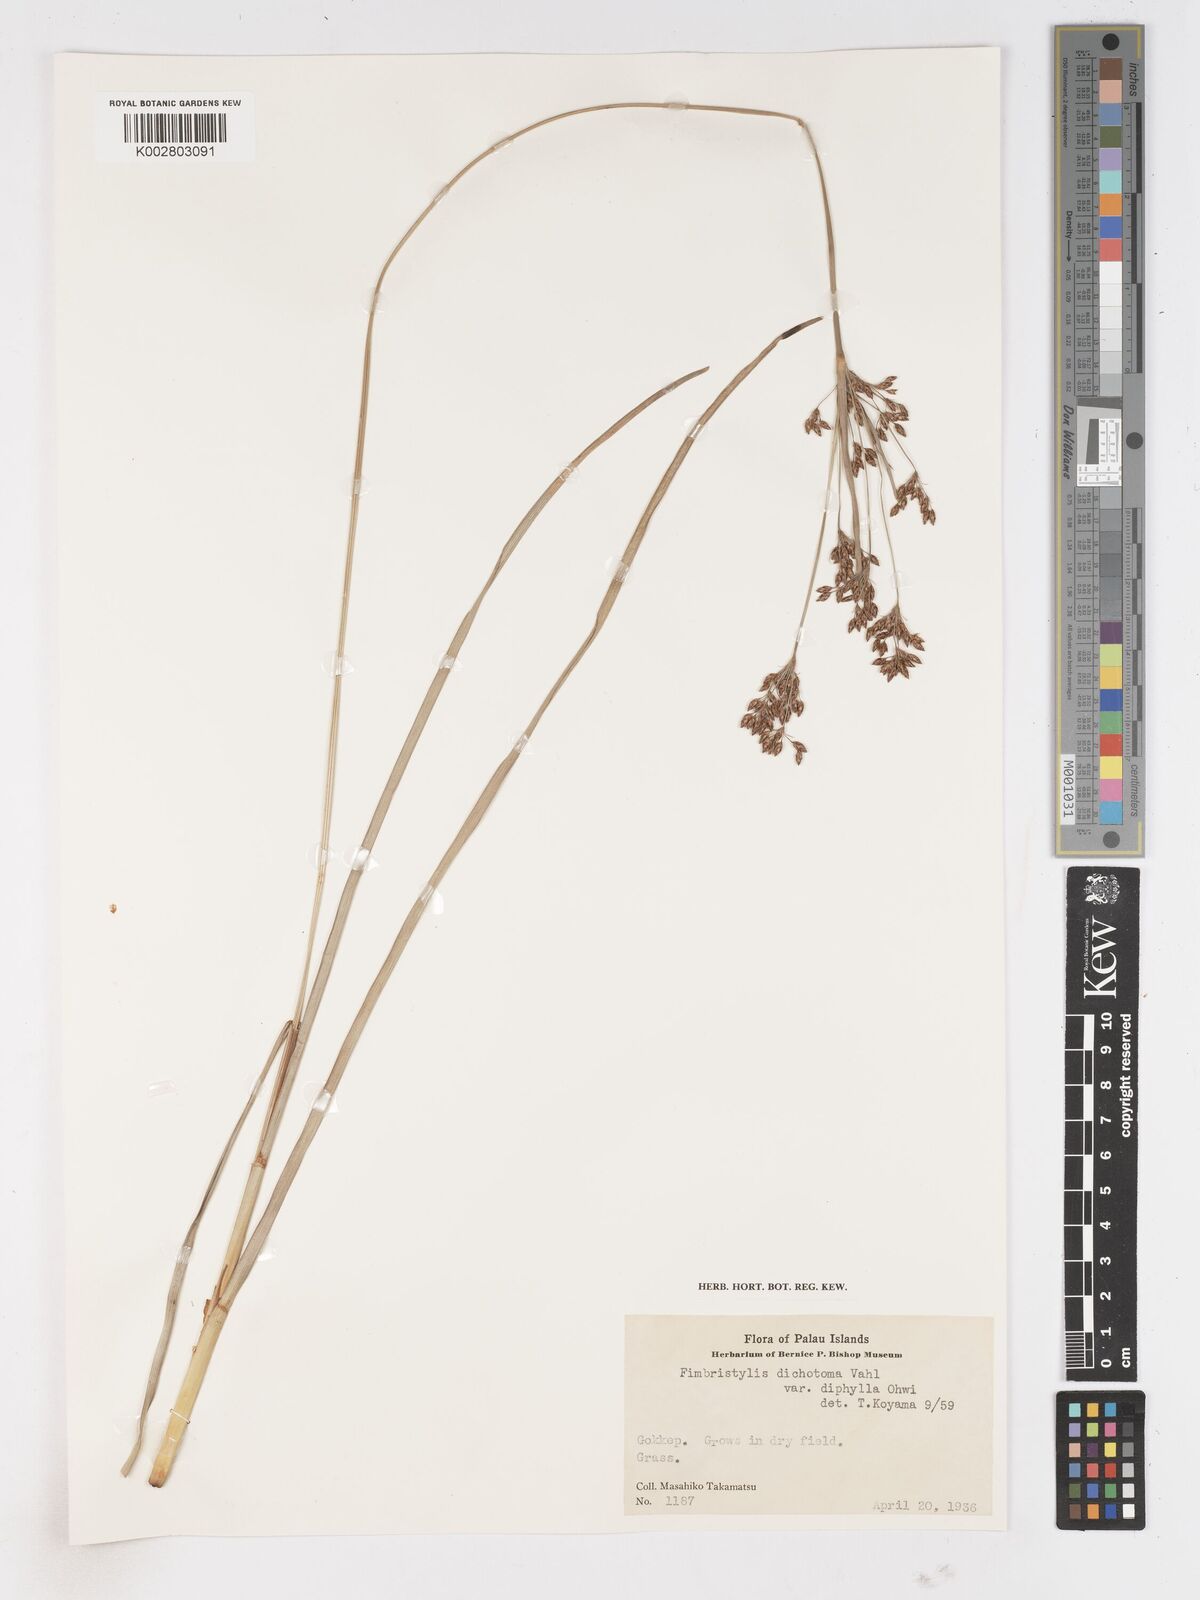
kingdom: Plantae
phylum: Tracheophyta
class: Liliopsida
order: Poales
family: Cyperaceae
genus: Fimbristylis
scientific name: Fimbristylis dichotoma
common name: Forked fimbry
